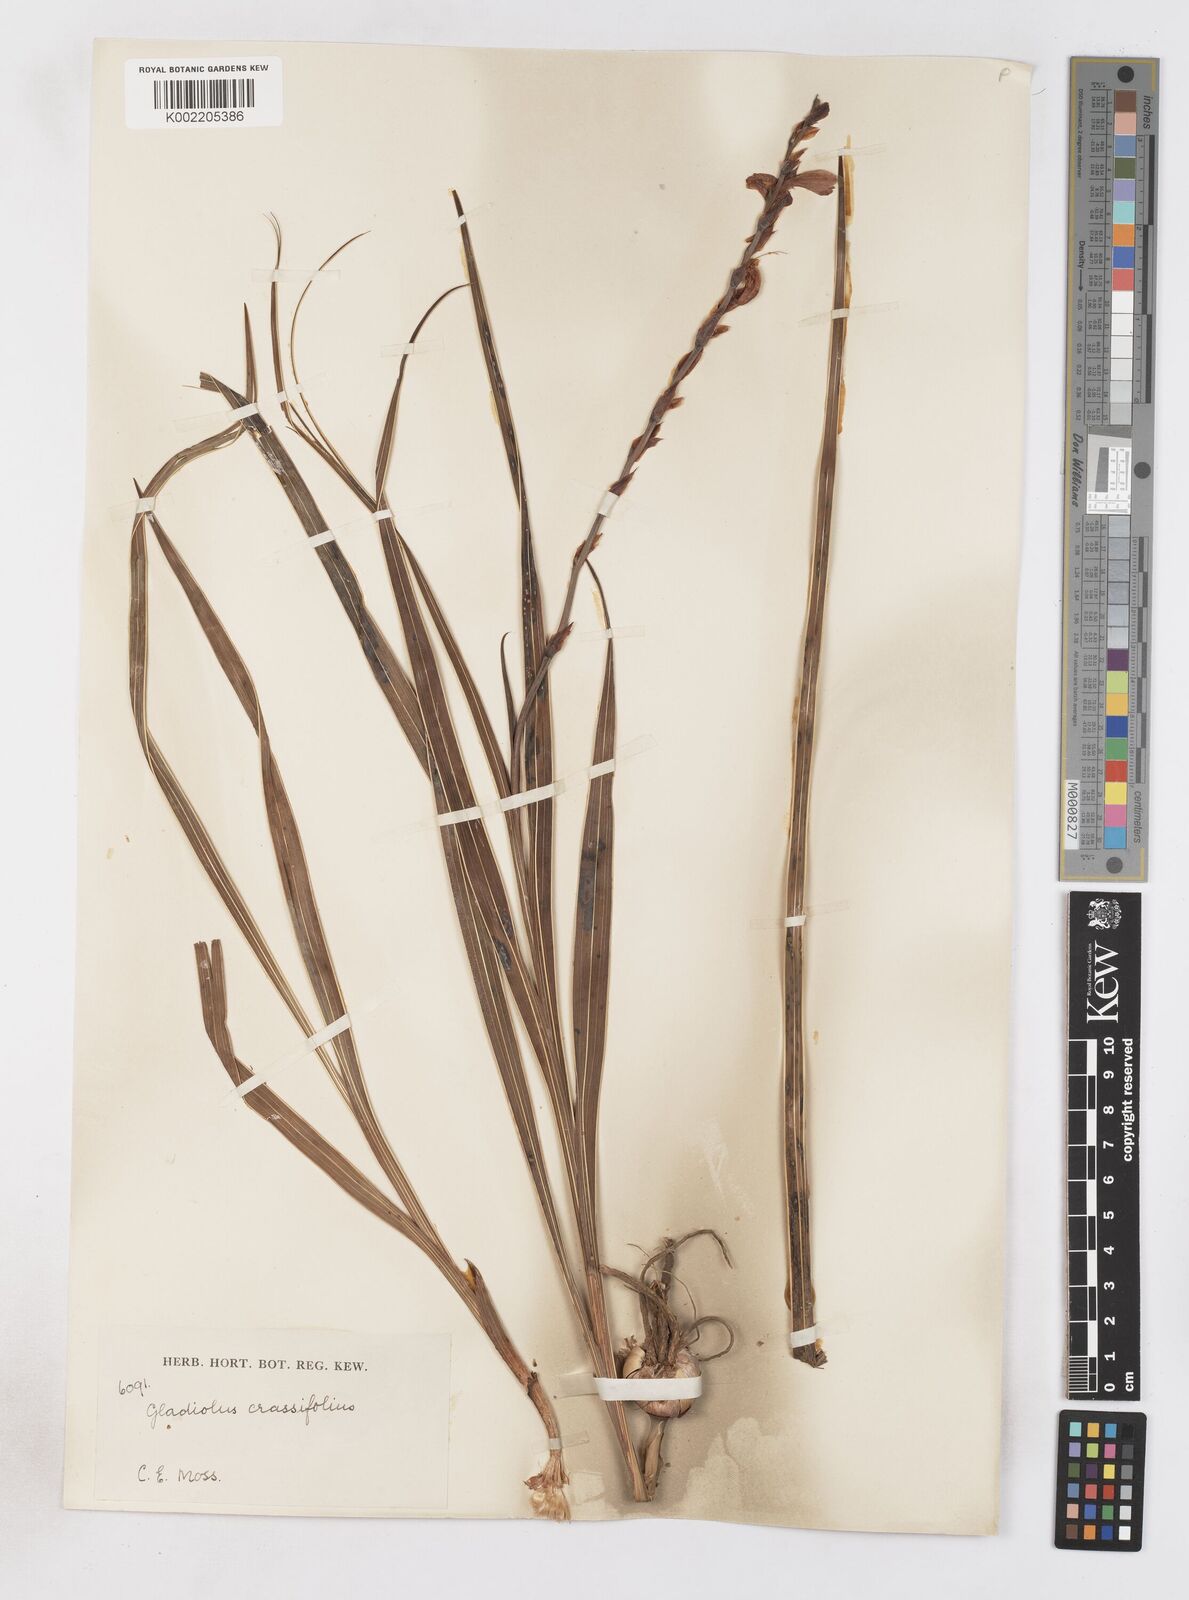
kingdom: Plantae
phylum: Tracheophyta
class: Liliopsida
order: Asparagales
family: Iridaceae
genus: Gladiolus
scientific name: Gladiolus crassifolius
